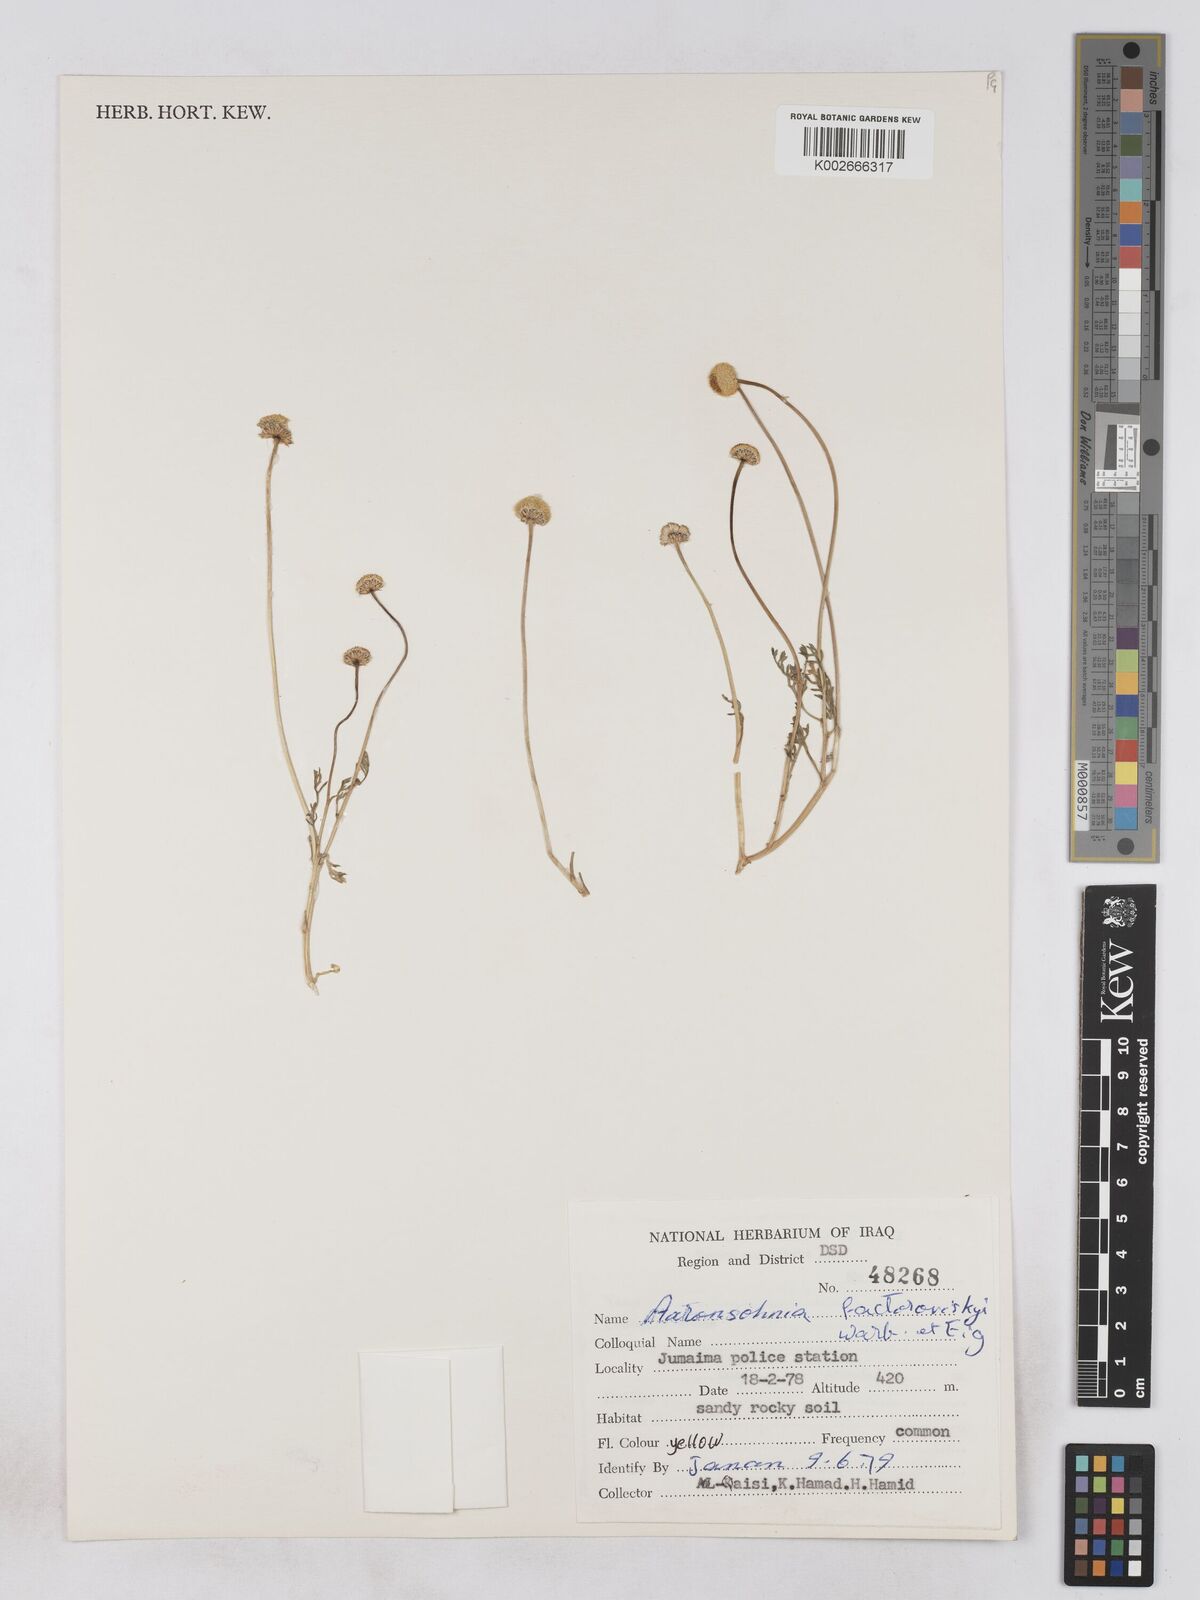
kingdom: Plantae
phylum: Tracheophyta
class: Magnoliopsida
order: Asterales
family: Asteraceae
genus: Otoglyphis
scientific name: Otoglyphis factorovskyi
